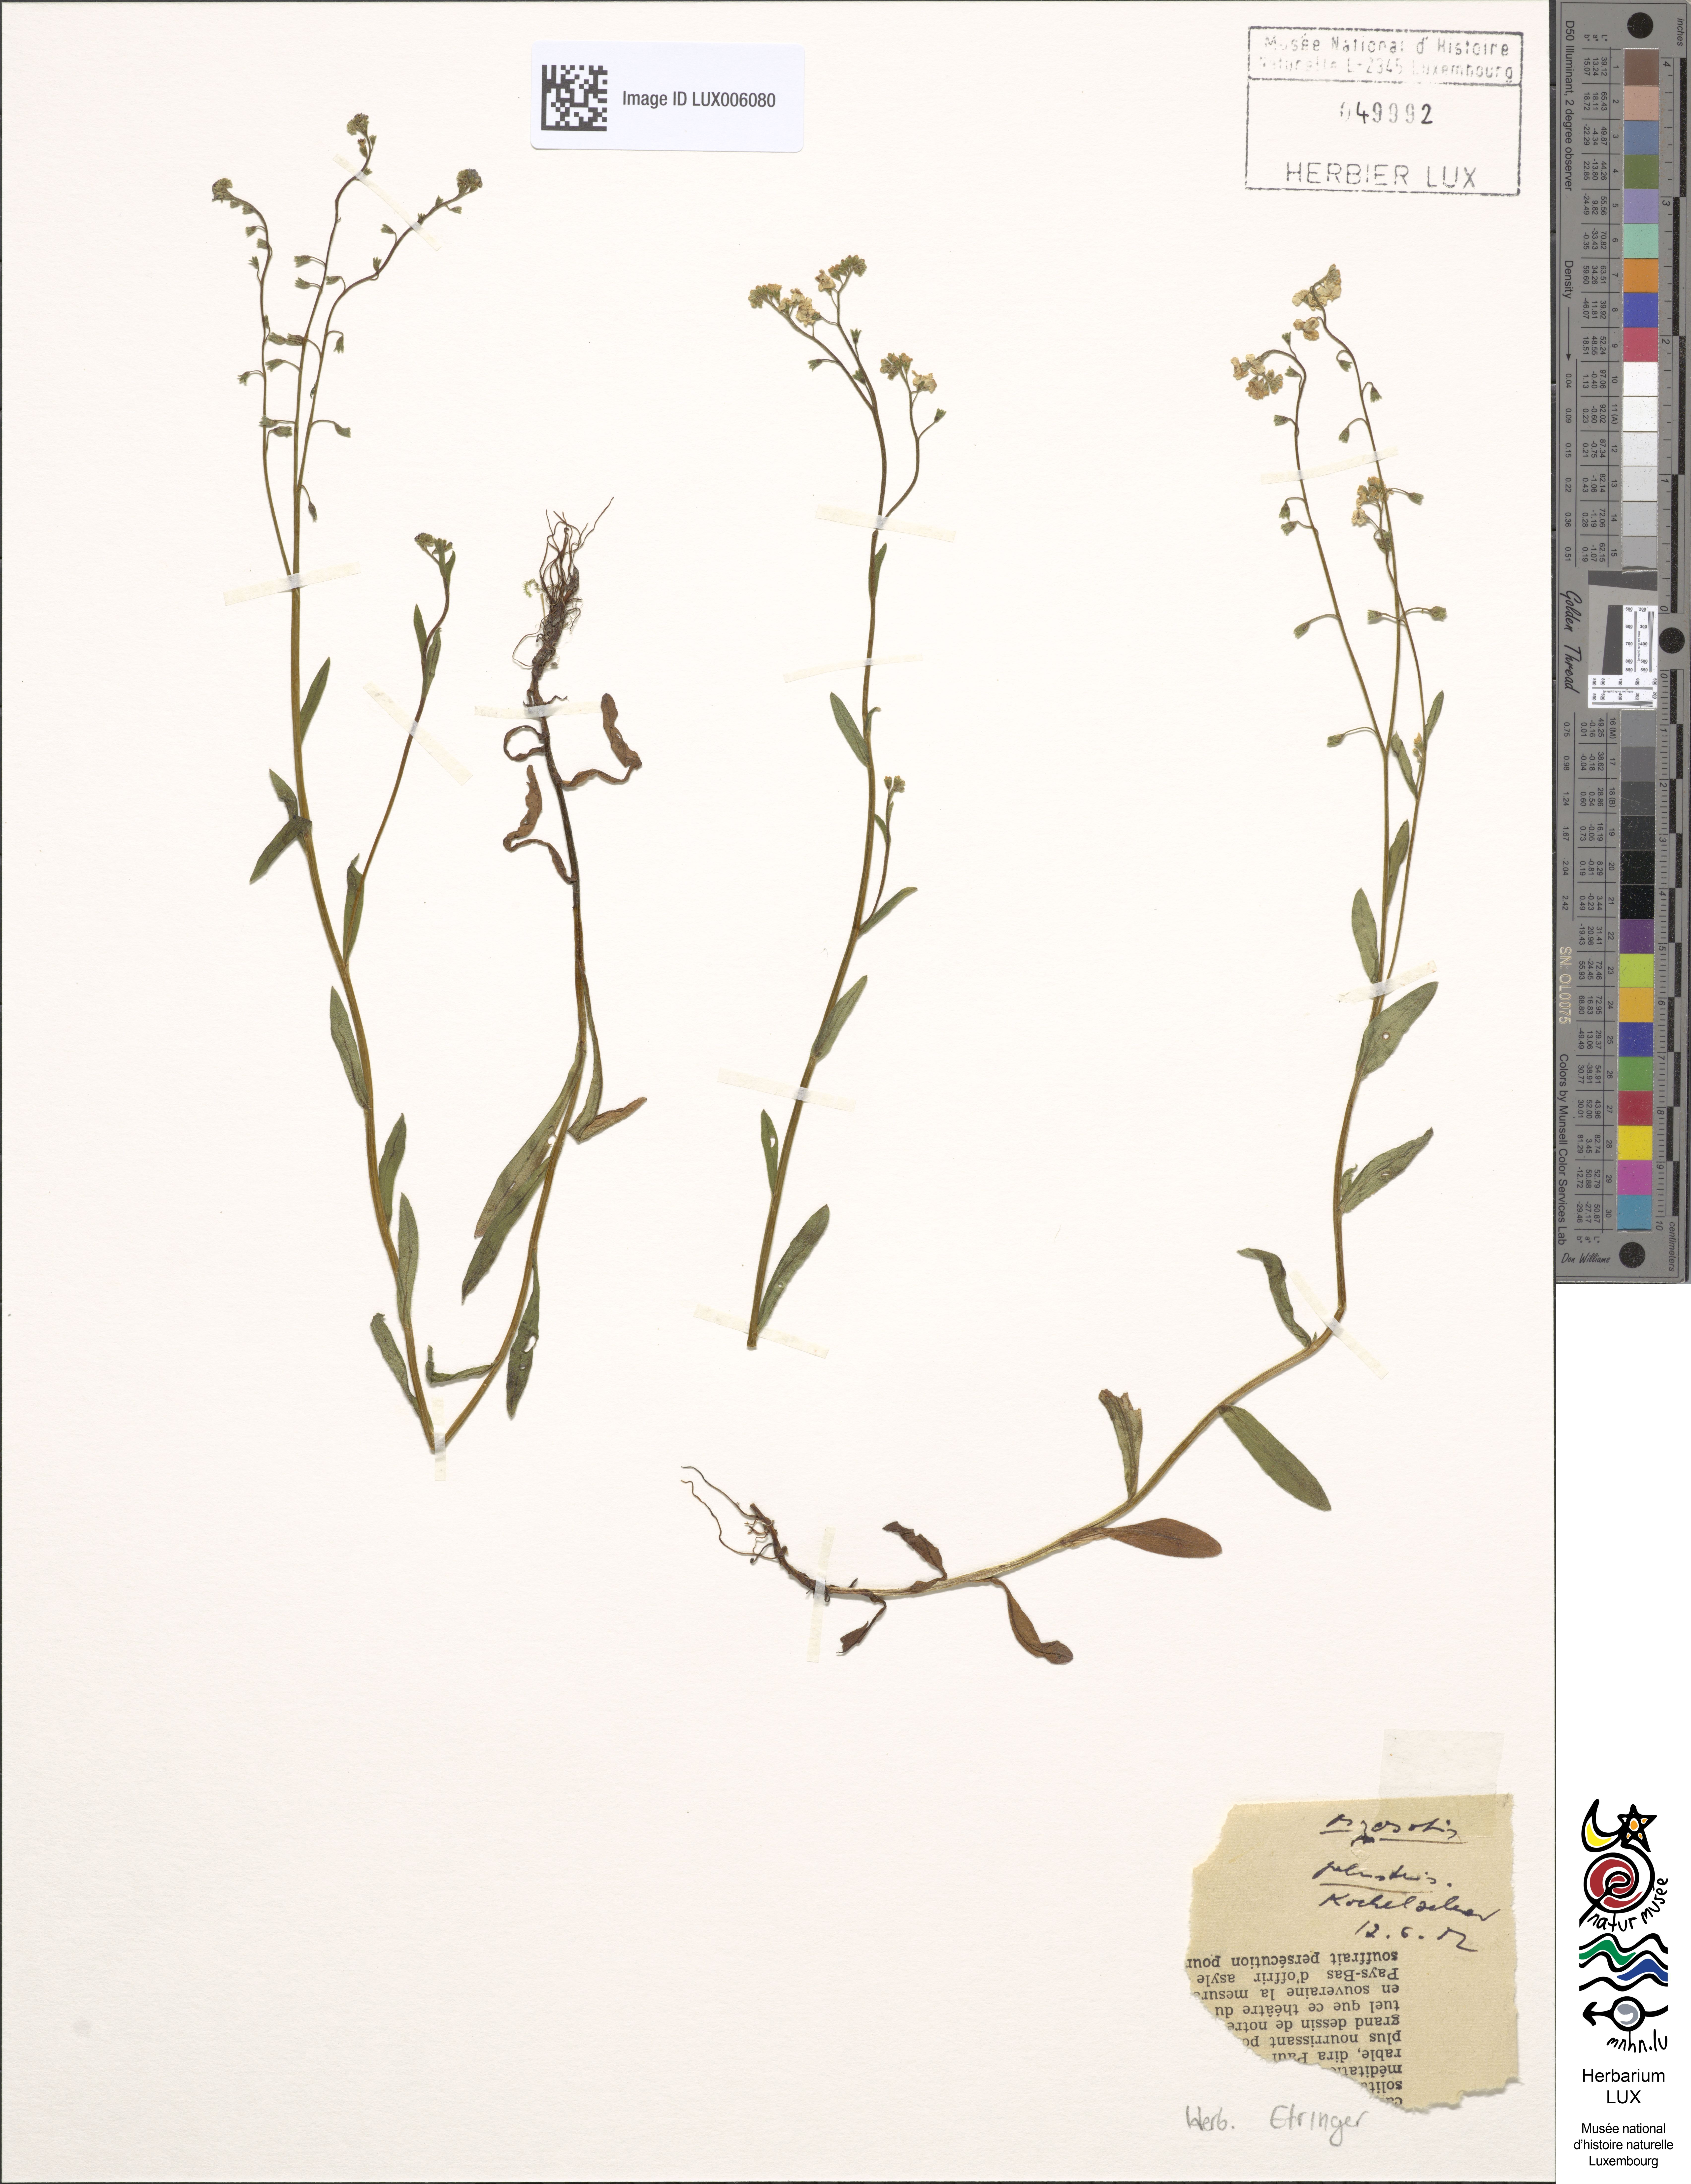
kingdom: Plantae
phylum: Tracheophyta
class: Magnoliopsida
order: Boraginales
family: Boraginaceae
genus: Myosotis
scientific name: Myosotis scorpioides
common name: Water forget-me-not
